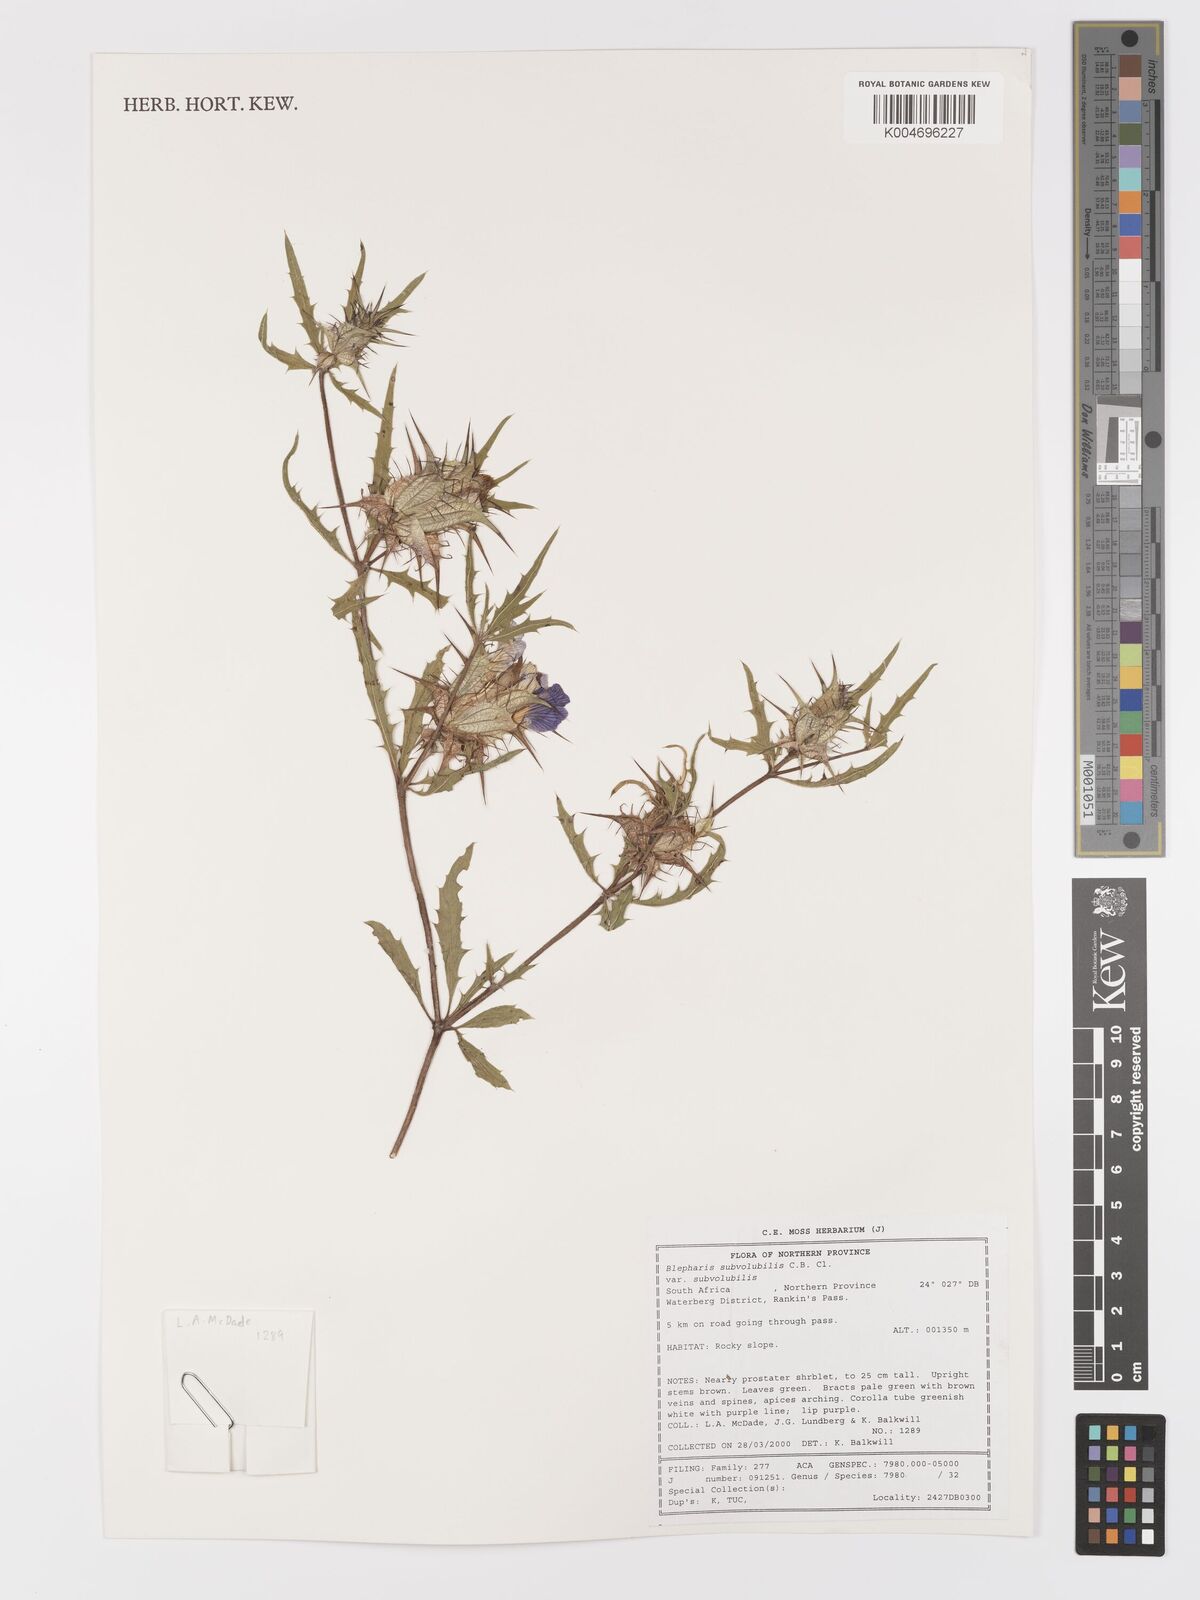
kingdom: Plantae
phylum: Tracheophyta
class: Magnoliopsida
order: Lamiales
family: Acanthaceae
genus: Blepharis
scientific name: Blepharis subvolubilis
